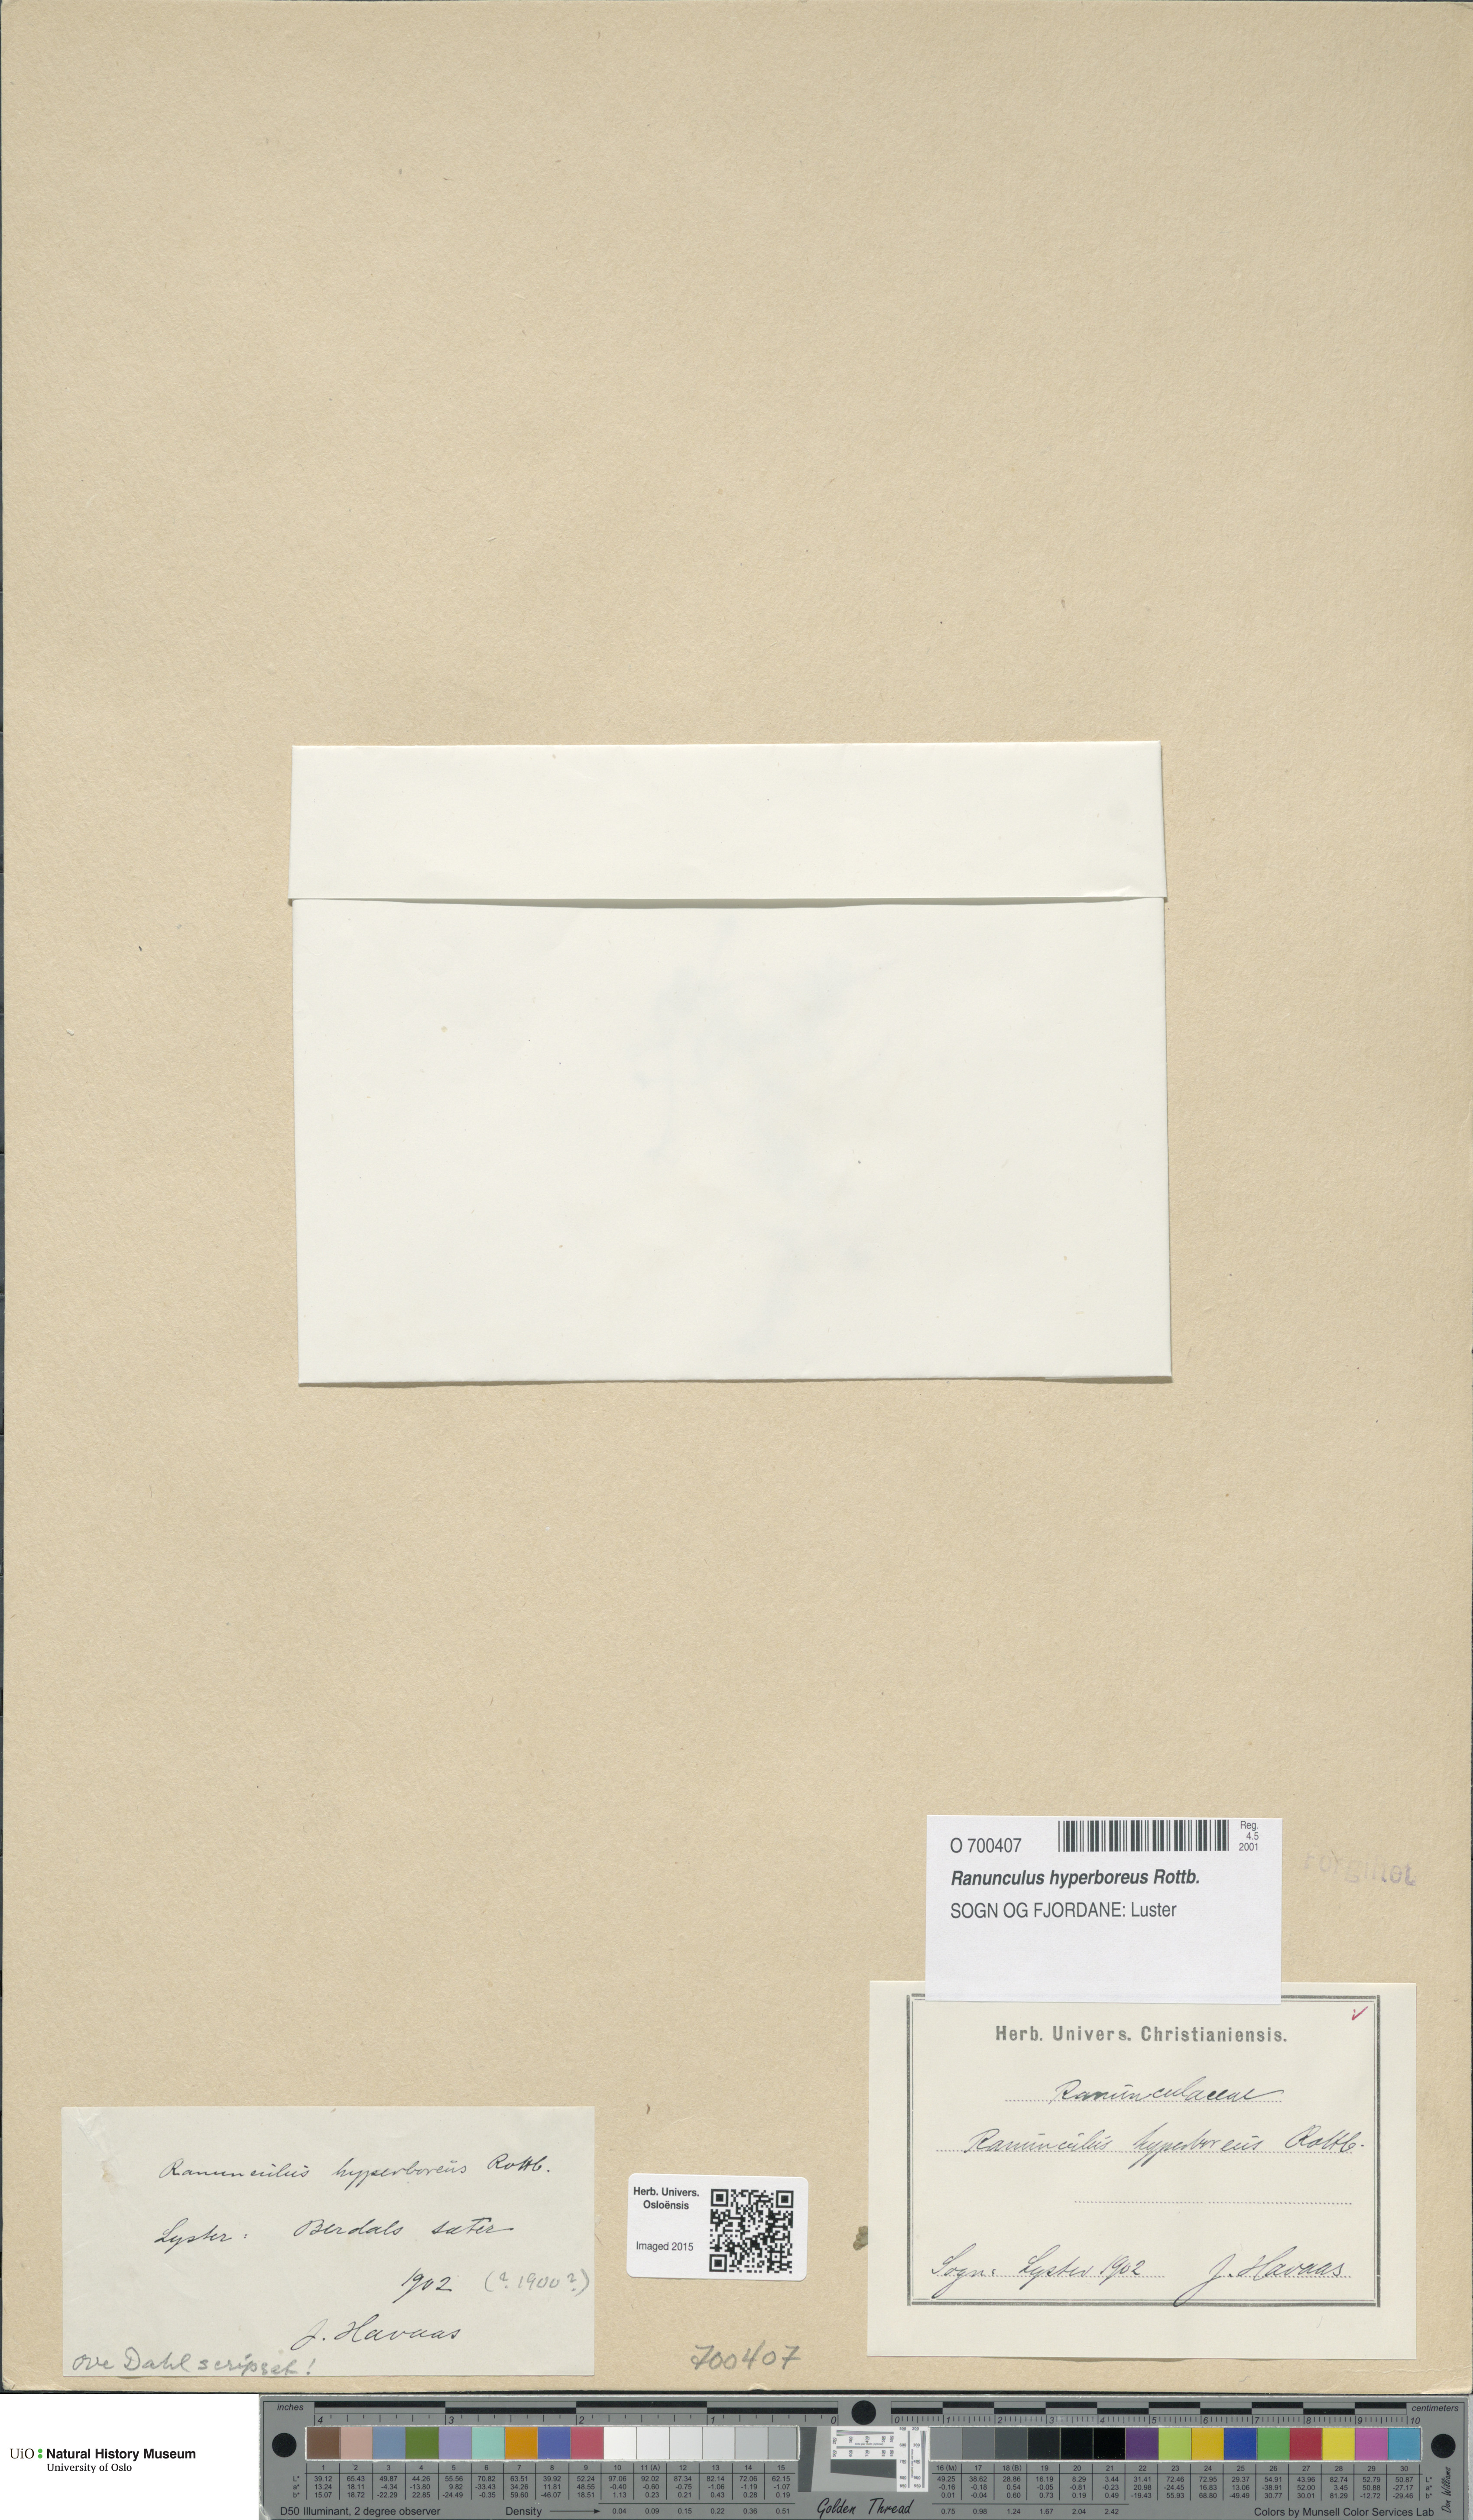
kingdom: Plantae
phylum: Tracheophyta
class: Magnoliopsida
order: Ranunculales
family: Ranunculaceae
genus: Ranunculus
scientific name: Ranunculus hyperboreus
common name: Arctic buttercup
